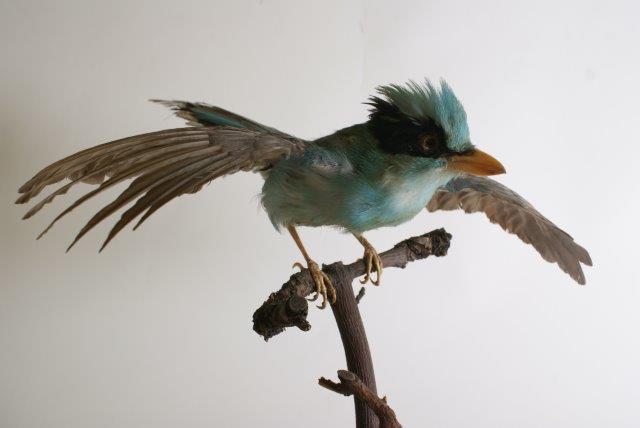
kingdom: Animalia
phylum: Chordata
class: Aves
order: Passeriformes
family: Corvidae
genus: Cissa
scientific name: Cissa chinensis
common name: Common green magpie
